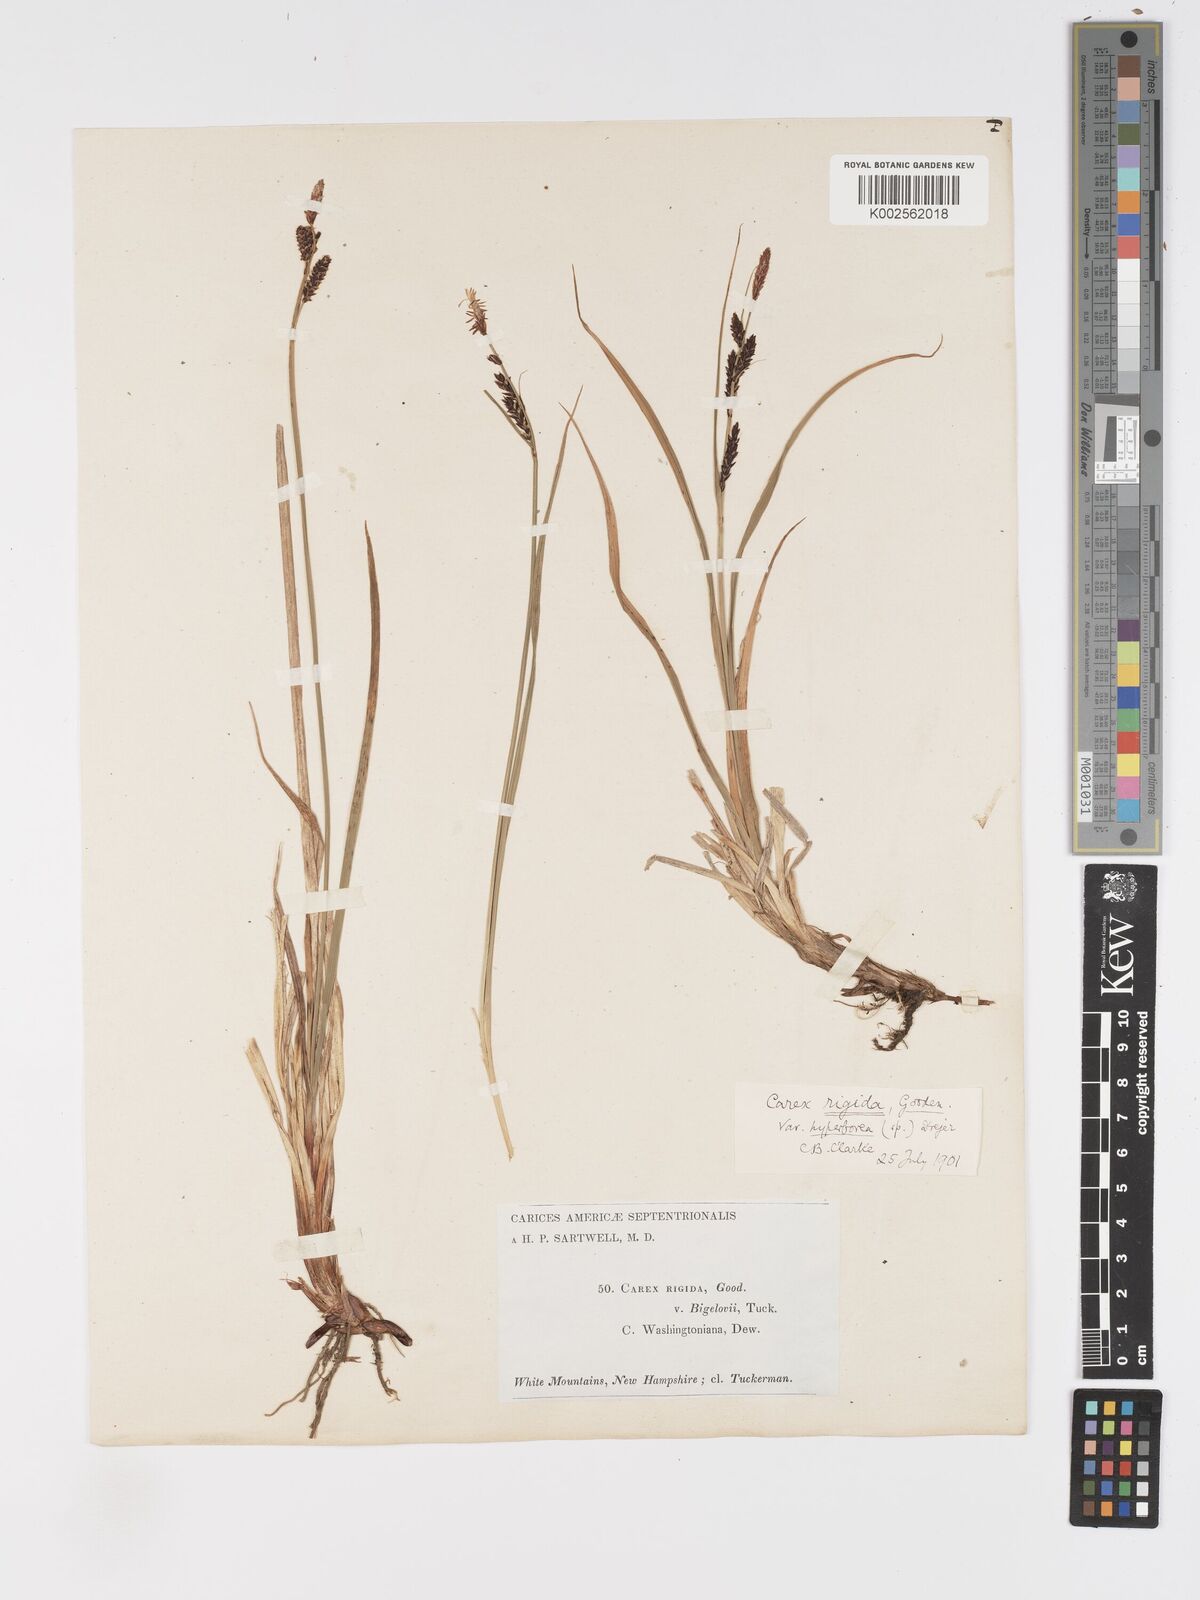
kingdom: Plantae
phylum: Tracheophyta
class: Liliopsida
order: Poales
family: Cyperaceae
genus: Carex
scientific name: Carex bigelowii
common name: Stiff sedge
